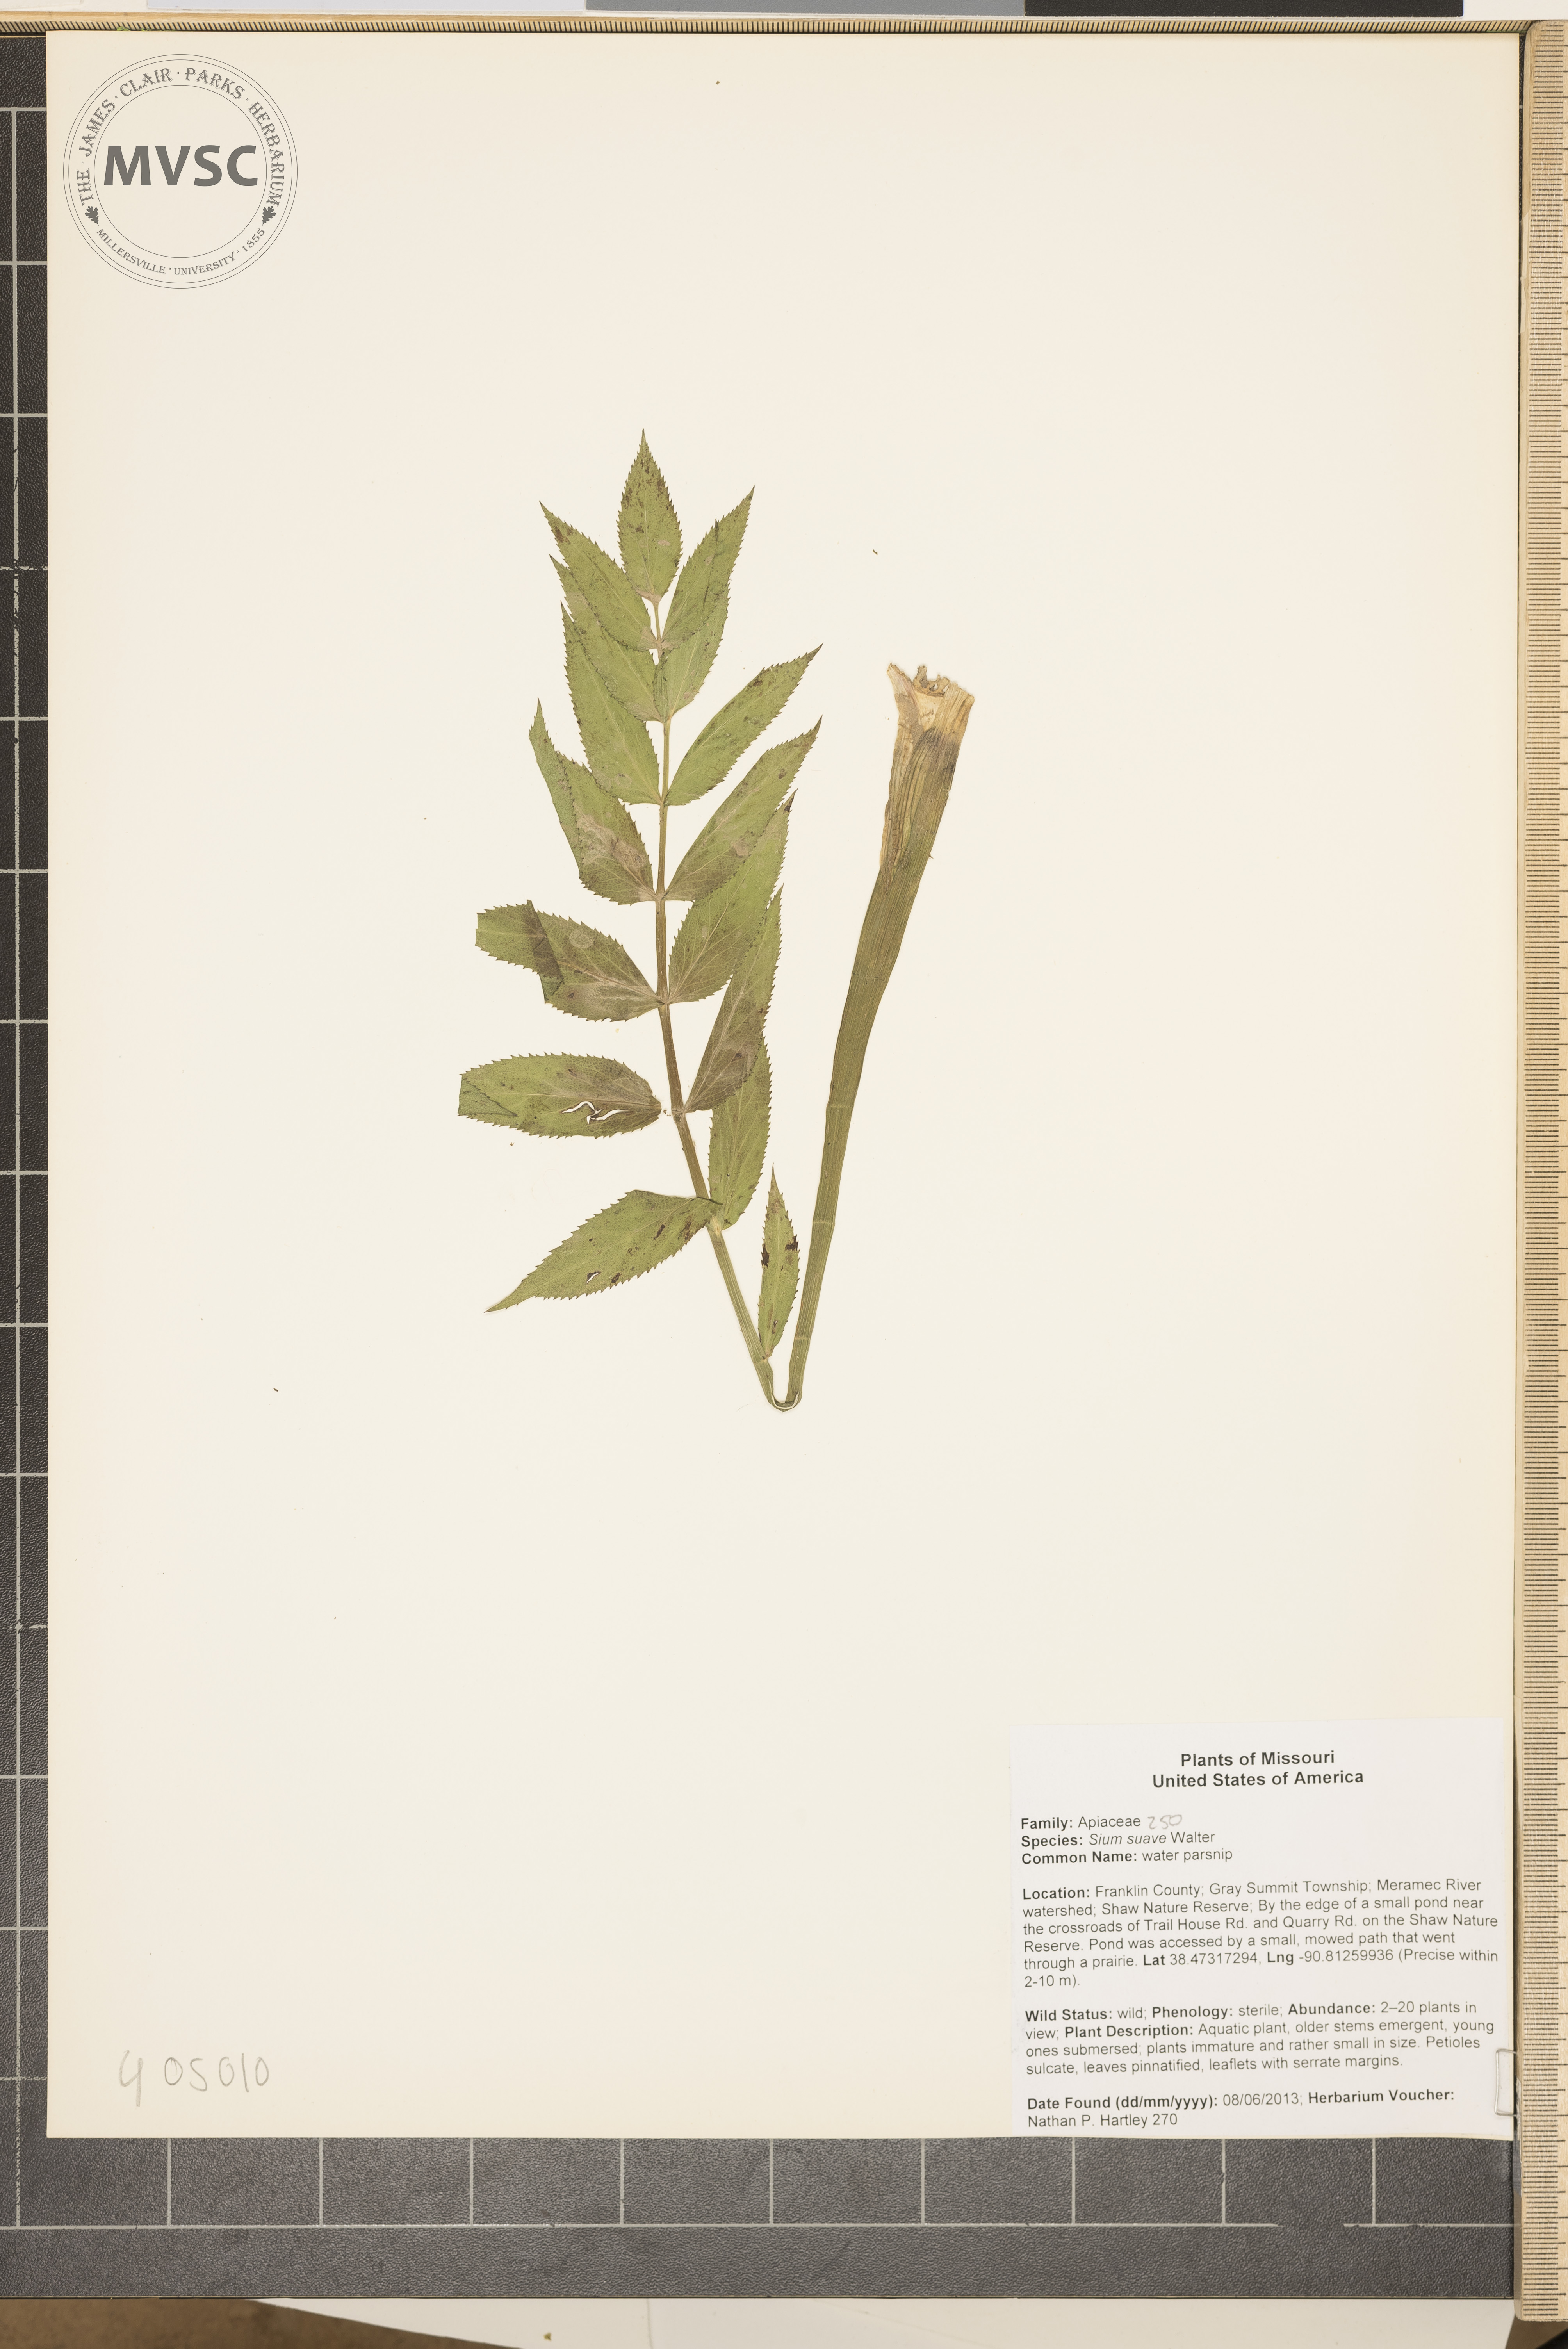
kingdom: Plantae
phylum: Tracheophyta
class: Magnoliopsida
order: Apiales
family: Apiaceae
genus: Sium
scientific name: Sium suave
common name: water parsnip
